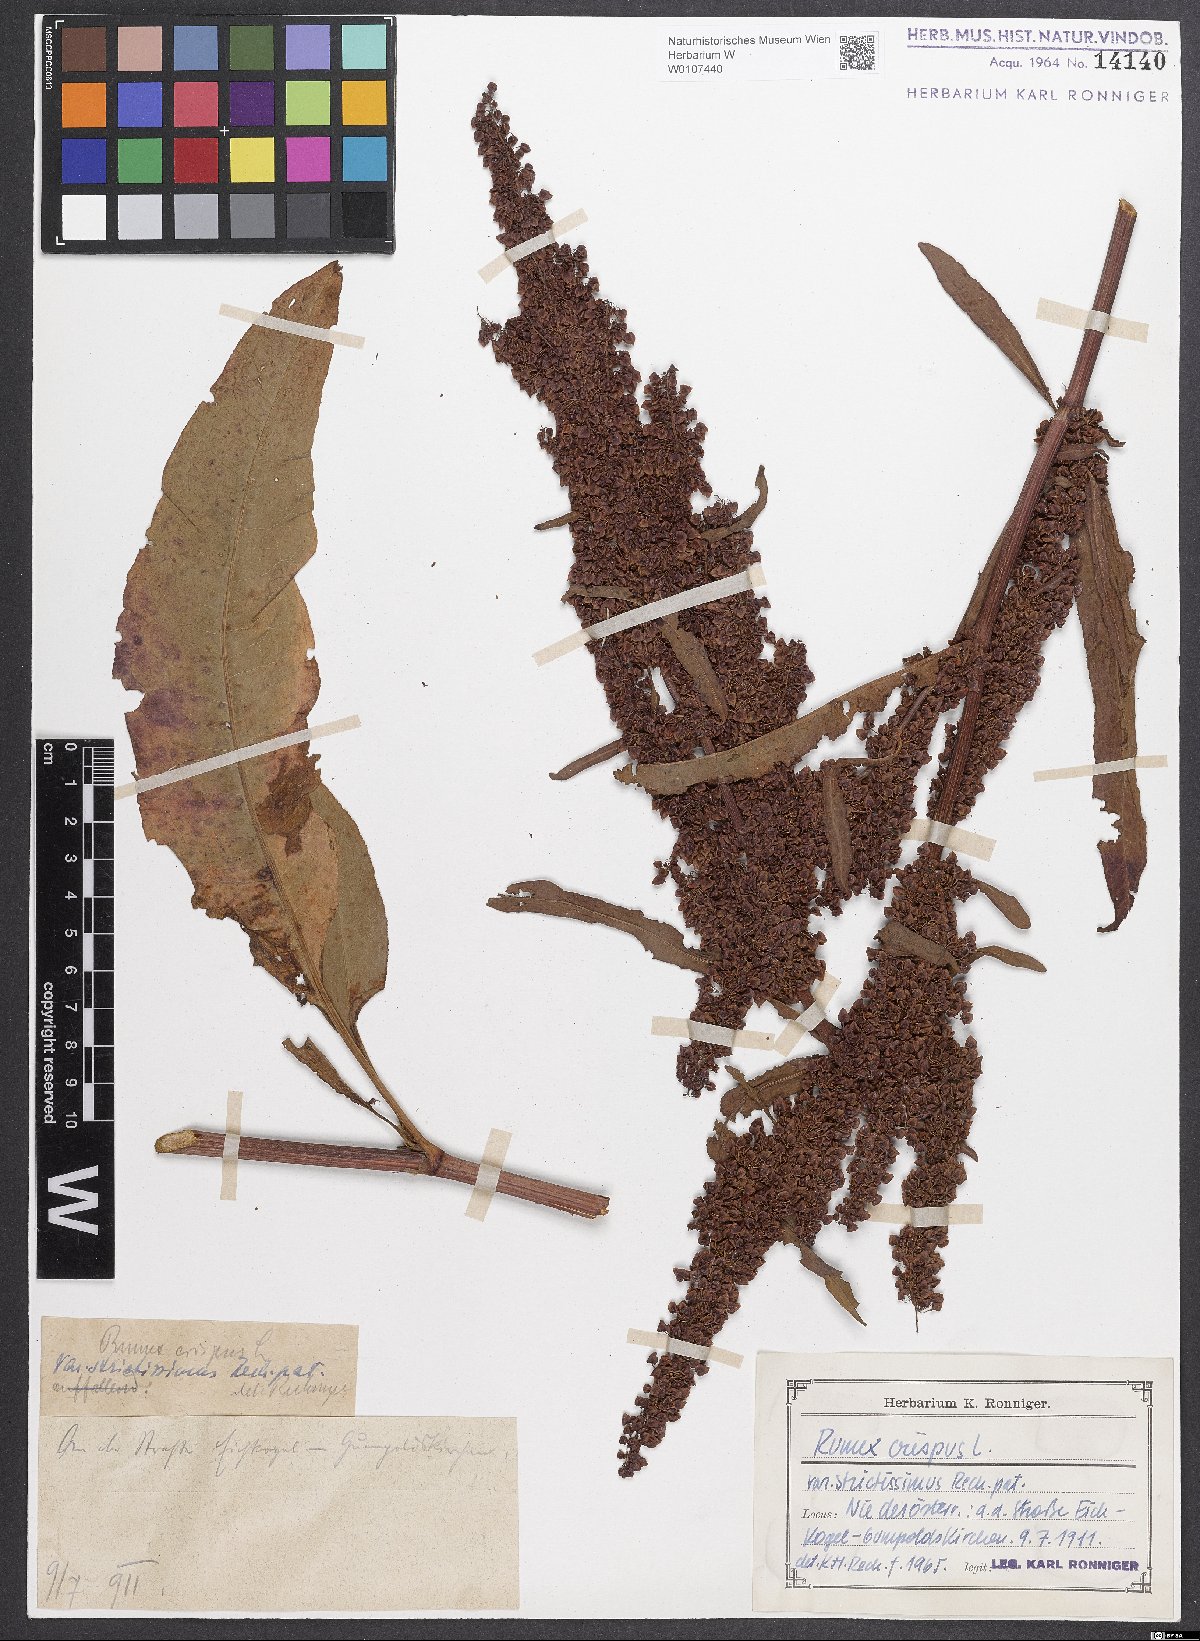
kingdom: Plantae
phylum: Tracheophyta
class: Magnoliopsida
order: Caryophyllales
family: Polygonaceae
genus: Rumex
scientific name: Rumex crispus
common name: Curled dock
